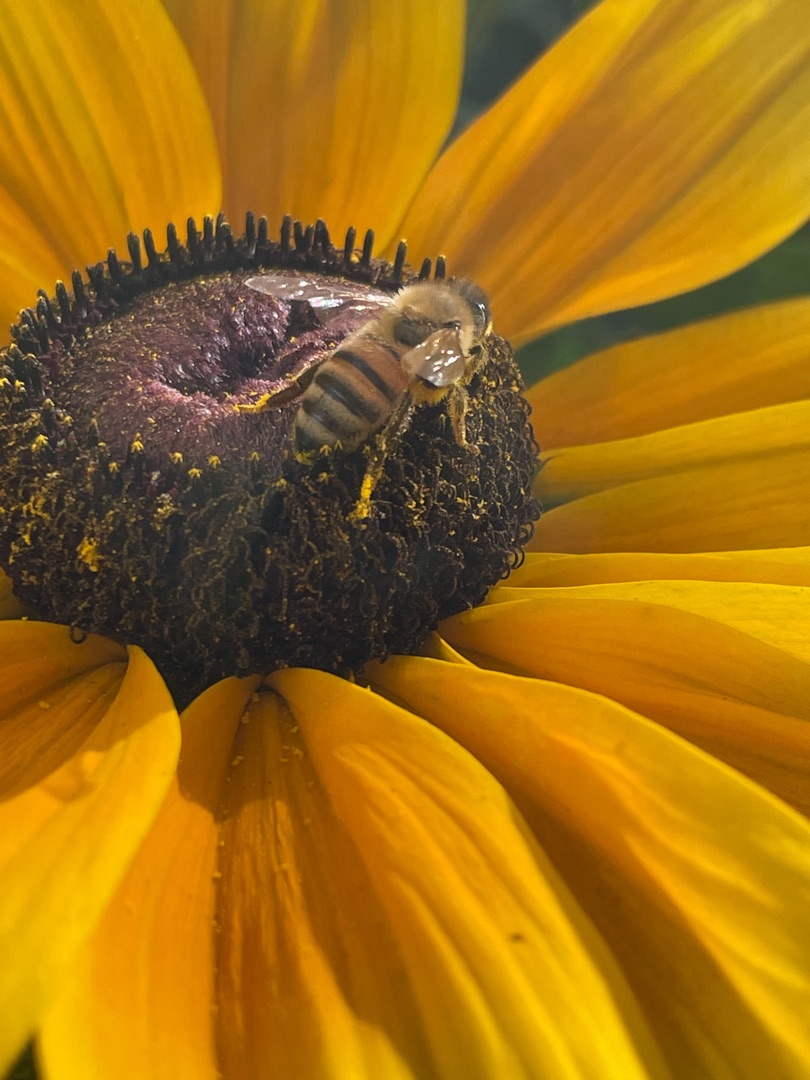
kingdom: Animalia
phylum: Arthropoda
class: Insecta
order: Hymenoptera
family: Apidae
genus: Apis
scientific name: Apis mellifera
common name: Honningbi
